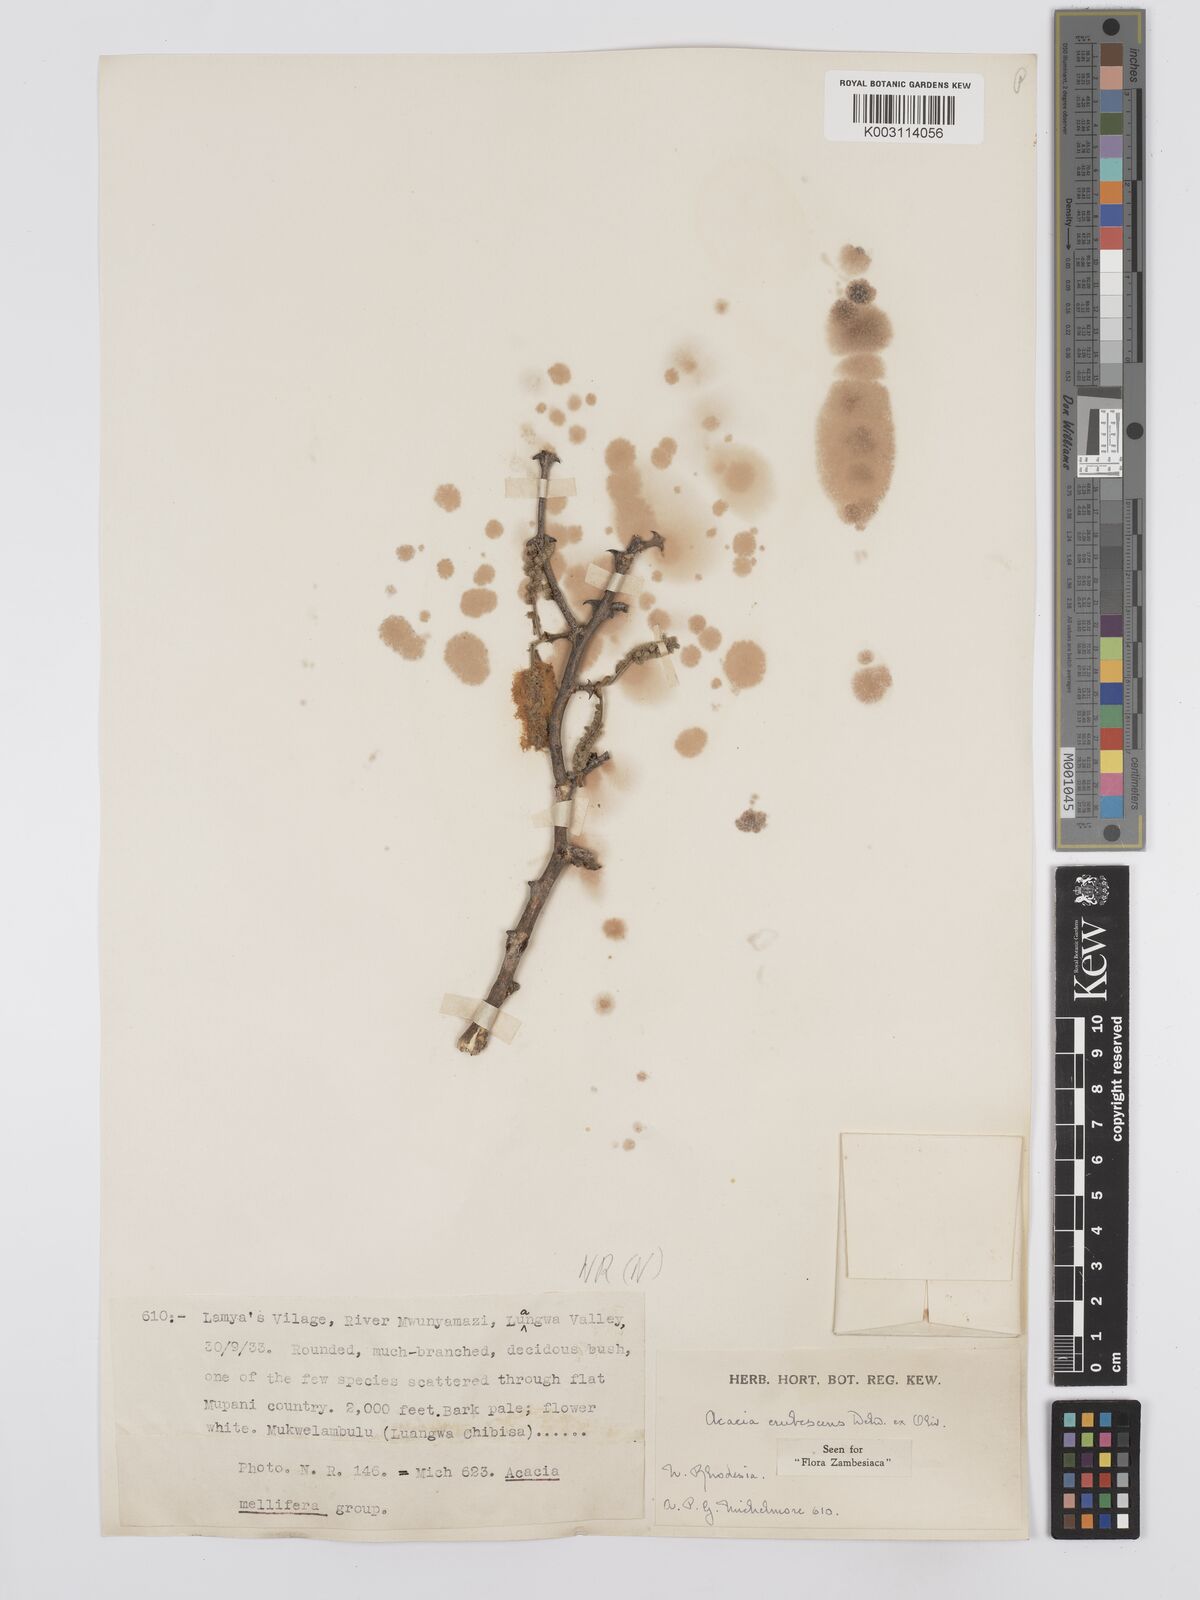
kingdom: Plantae
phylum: Tracheophyta
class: Magnoliopsida
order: Fabales
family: Fabaceae
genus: Senegalia
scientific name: Senegalia erubescens
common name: Bluethorn
